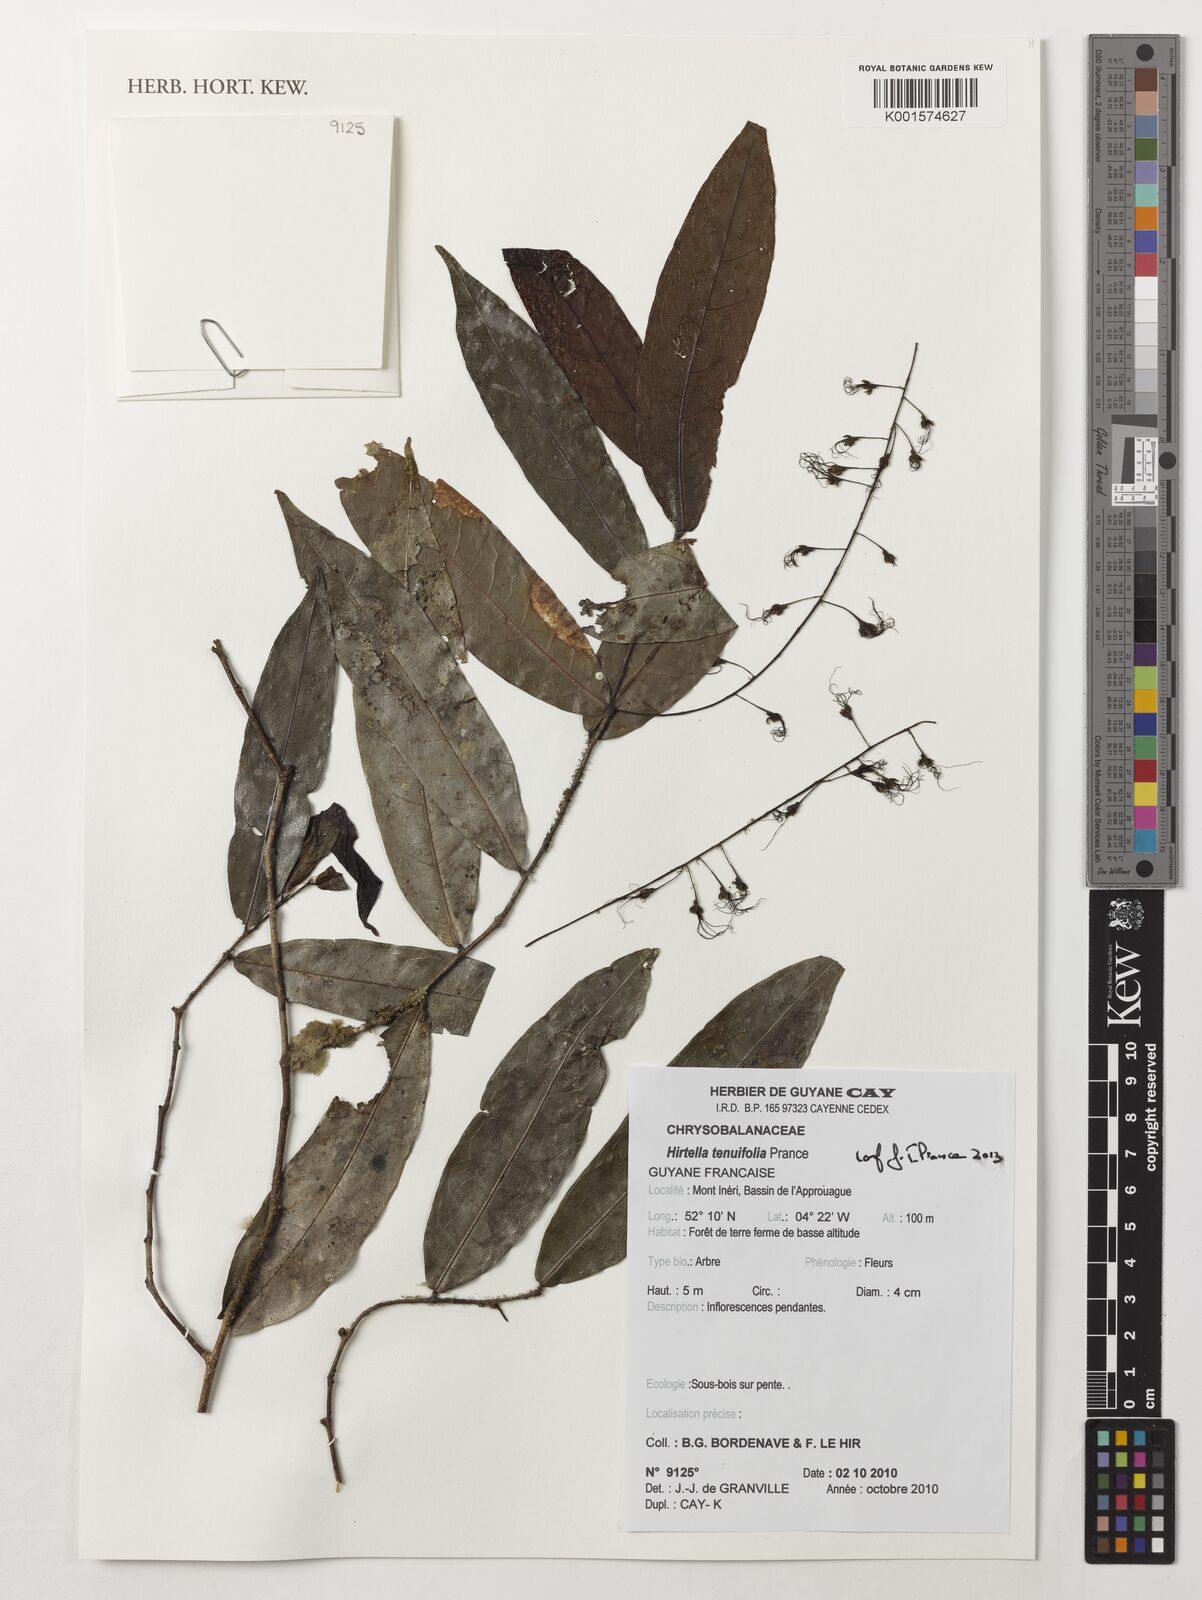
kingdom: Plantae
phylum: Tracheophyta
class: Magnoliopsida
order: Malpighiales
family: Chrysobalanaceae
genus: Hirtella
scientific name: Hirtella tenuifolia
